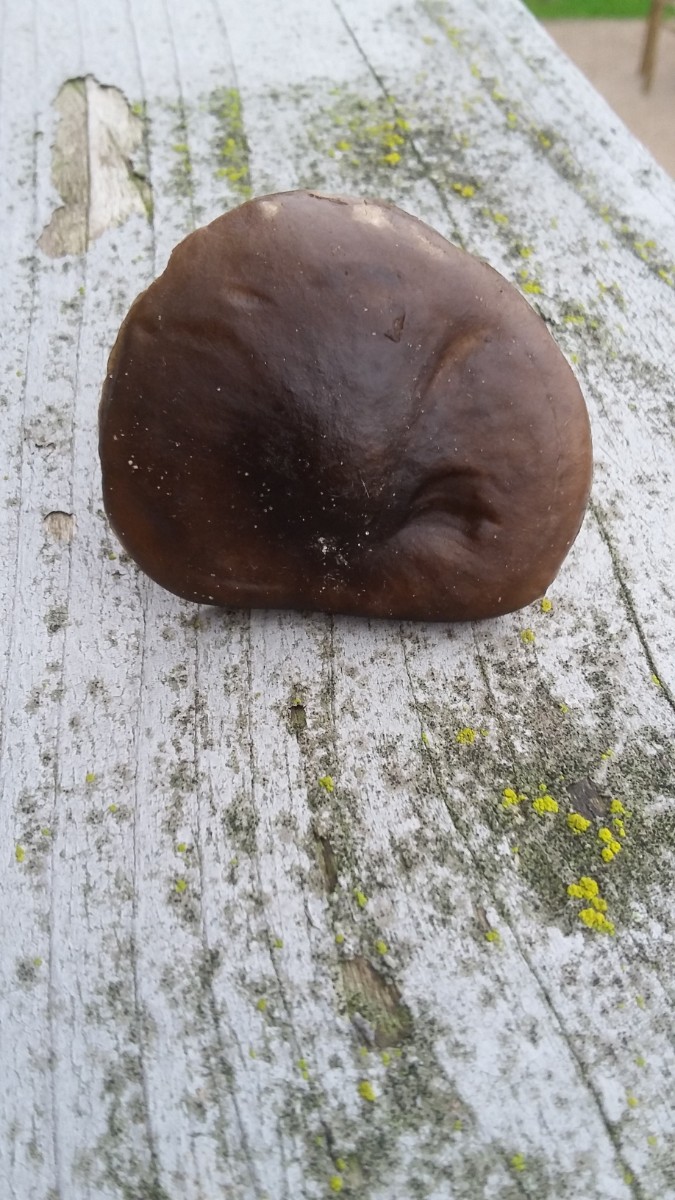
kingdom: Fungi
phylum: Basidiomycota
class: Agaricomycetes
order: Agaricales
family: Tricholomataceae
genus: Melanoleuca
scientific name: Melanoleuca
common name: munkehat
